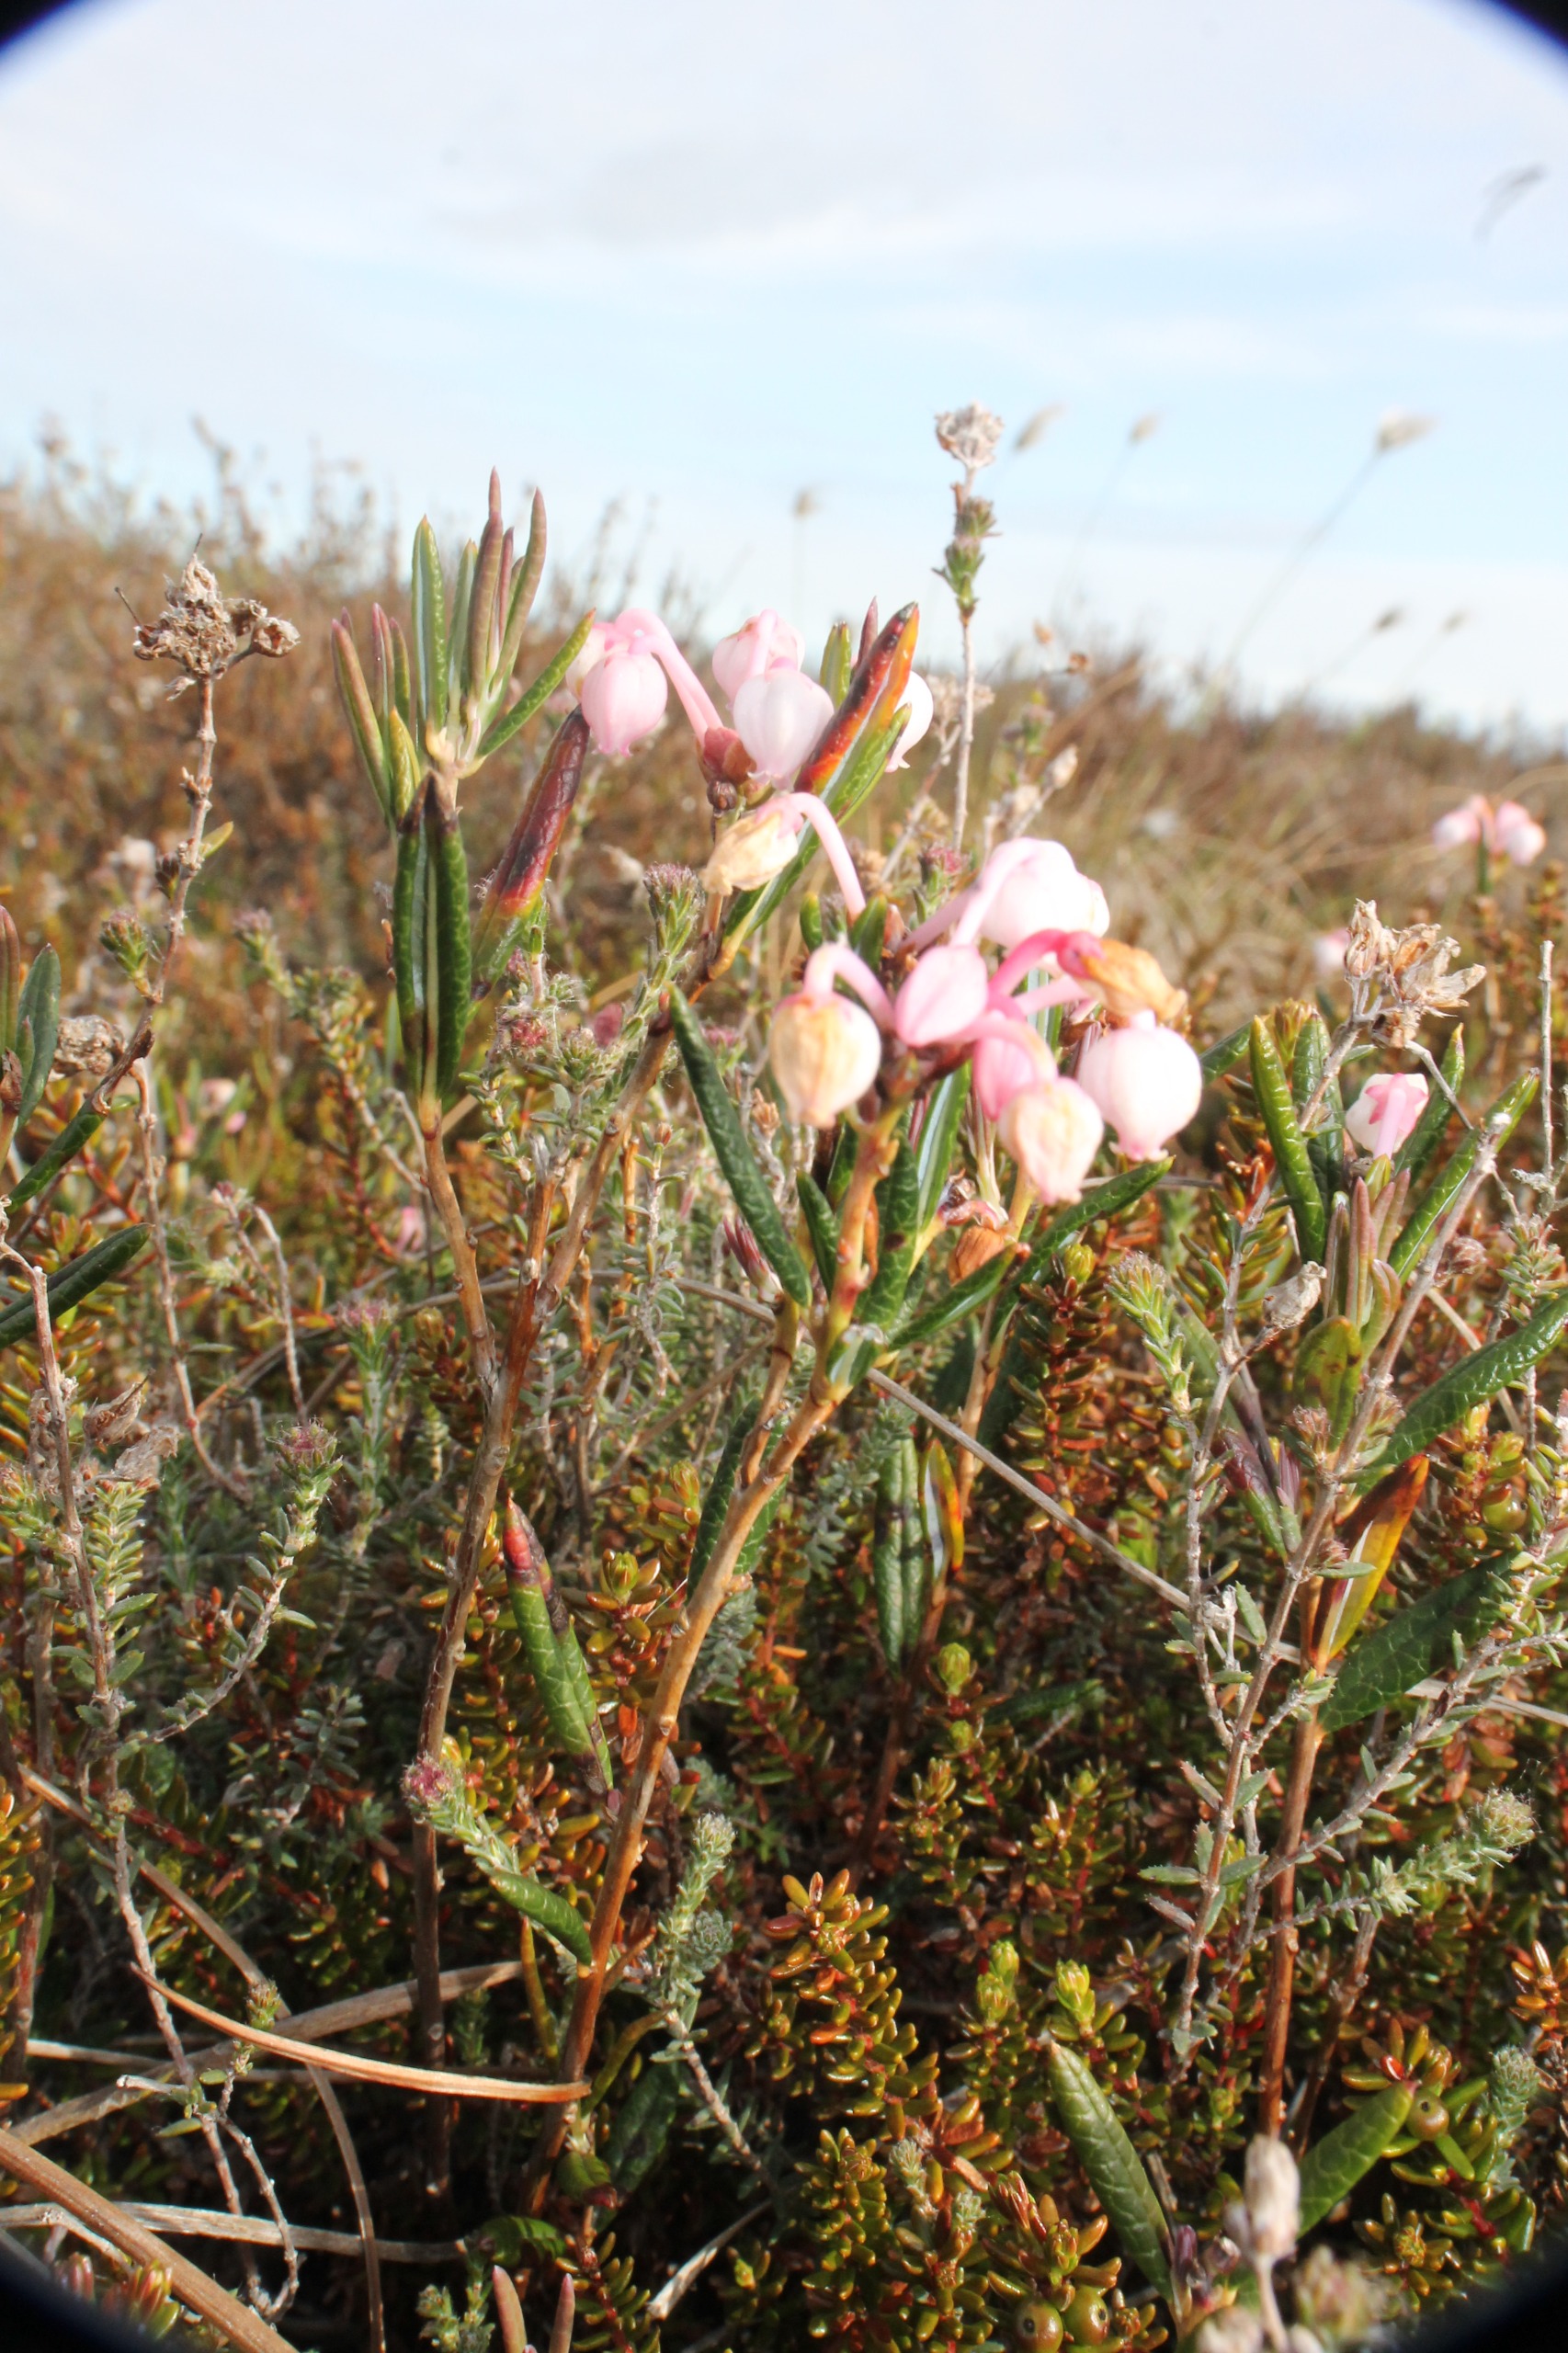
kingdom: Plantae
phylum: Tracheophyta
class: Magnoliopsida
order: Ericales
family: Ericaceae
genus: Andromeda
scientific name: Andromeda polifolia
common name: Rosmarinlyng
